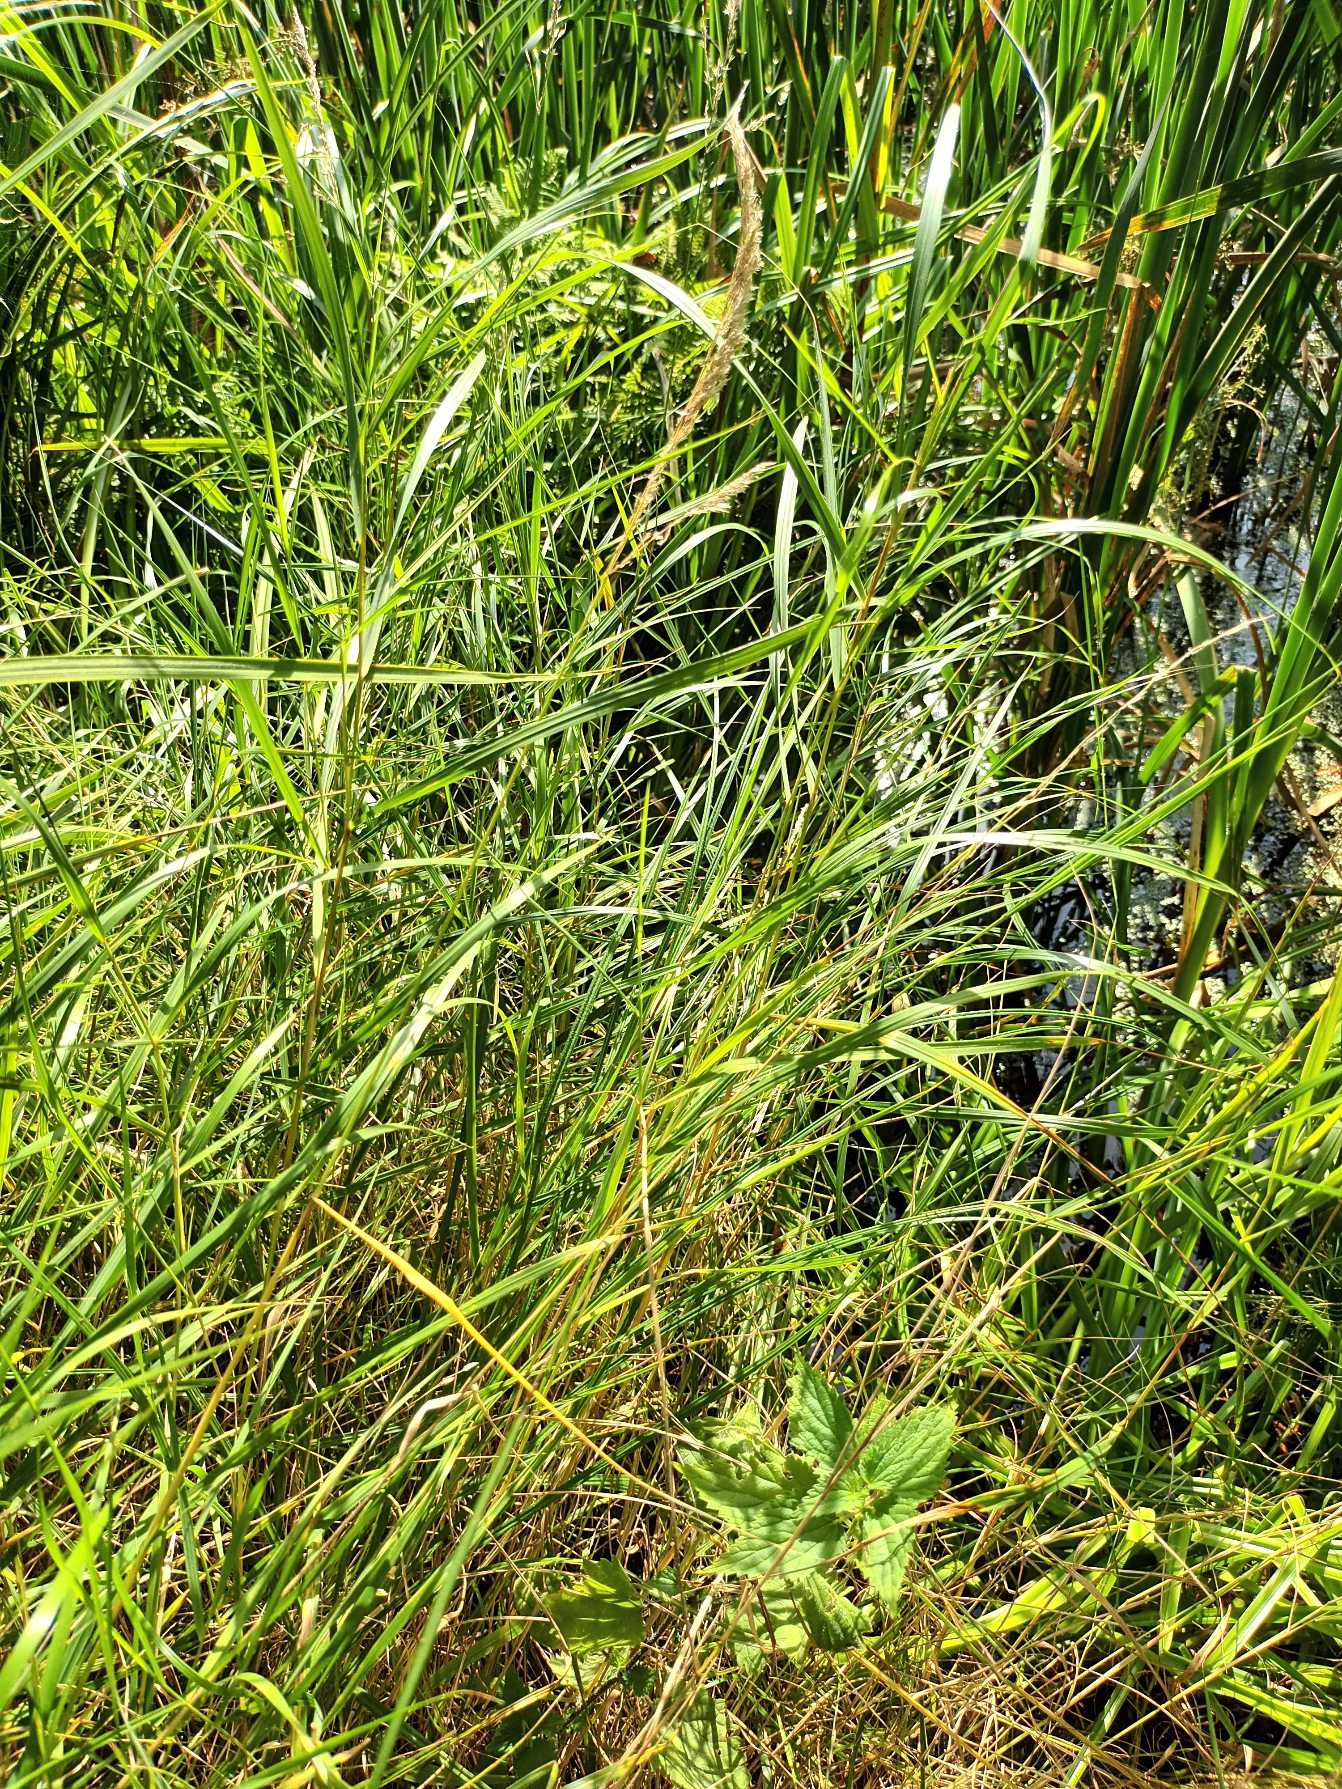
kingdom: Plantae
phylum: Tracheophyta
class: Liliopsida
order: Poales
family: Poaceae
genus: Calamagrostis
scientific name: Calamagrostis canescens
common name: Eng-rørhvene
